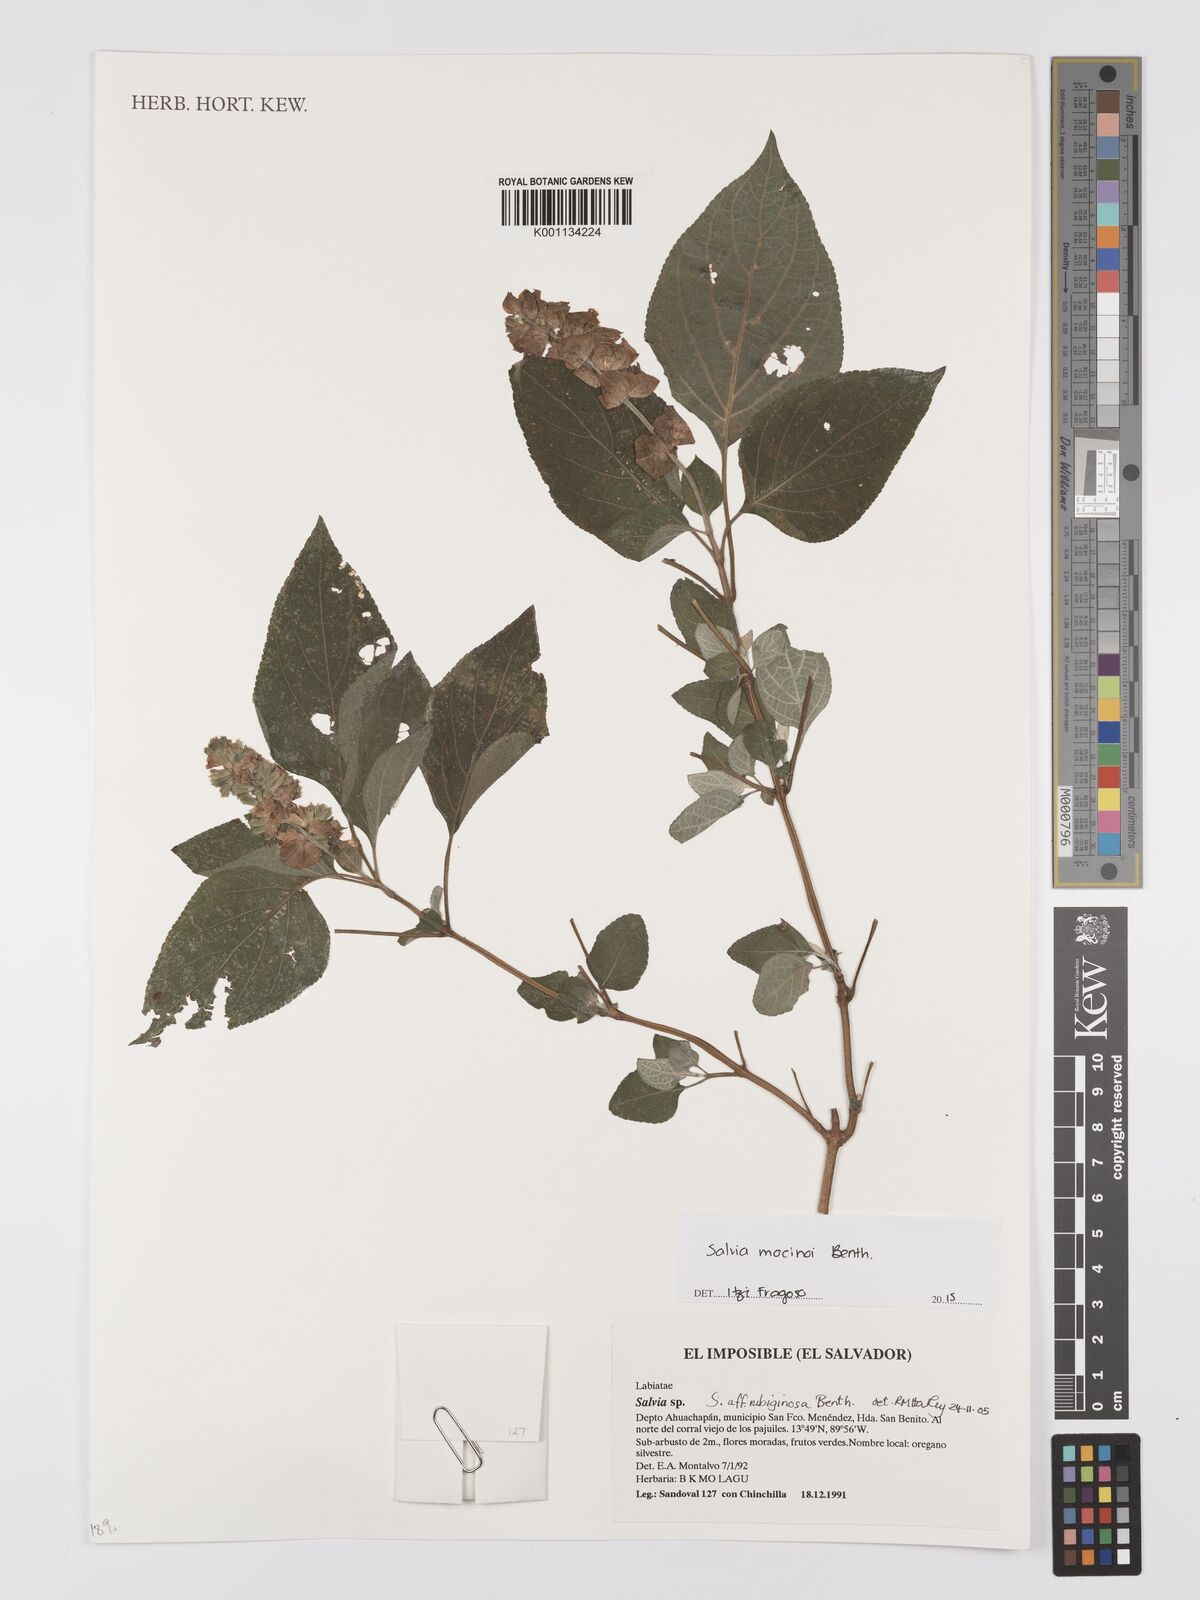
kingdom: Plantae
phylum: Tracheophyta
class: Magnoliopsida
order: Lamiales
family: Lamiaceae
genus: Salvia
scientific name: Salvia mocinoi
